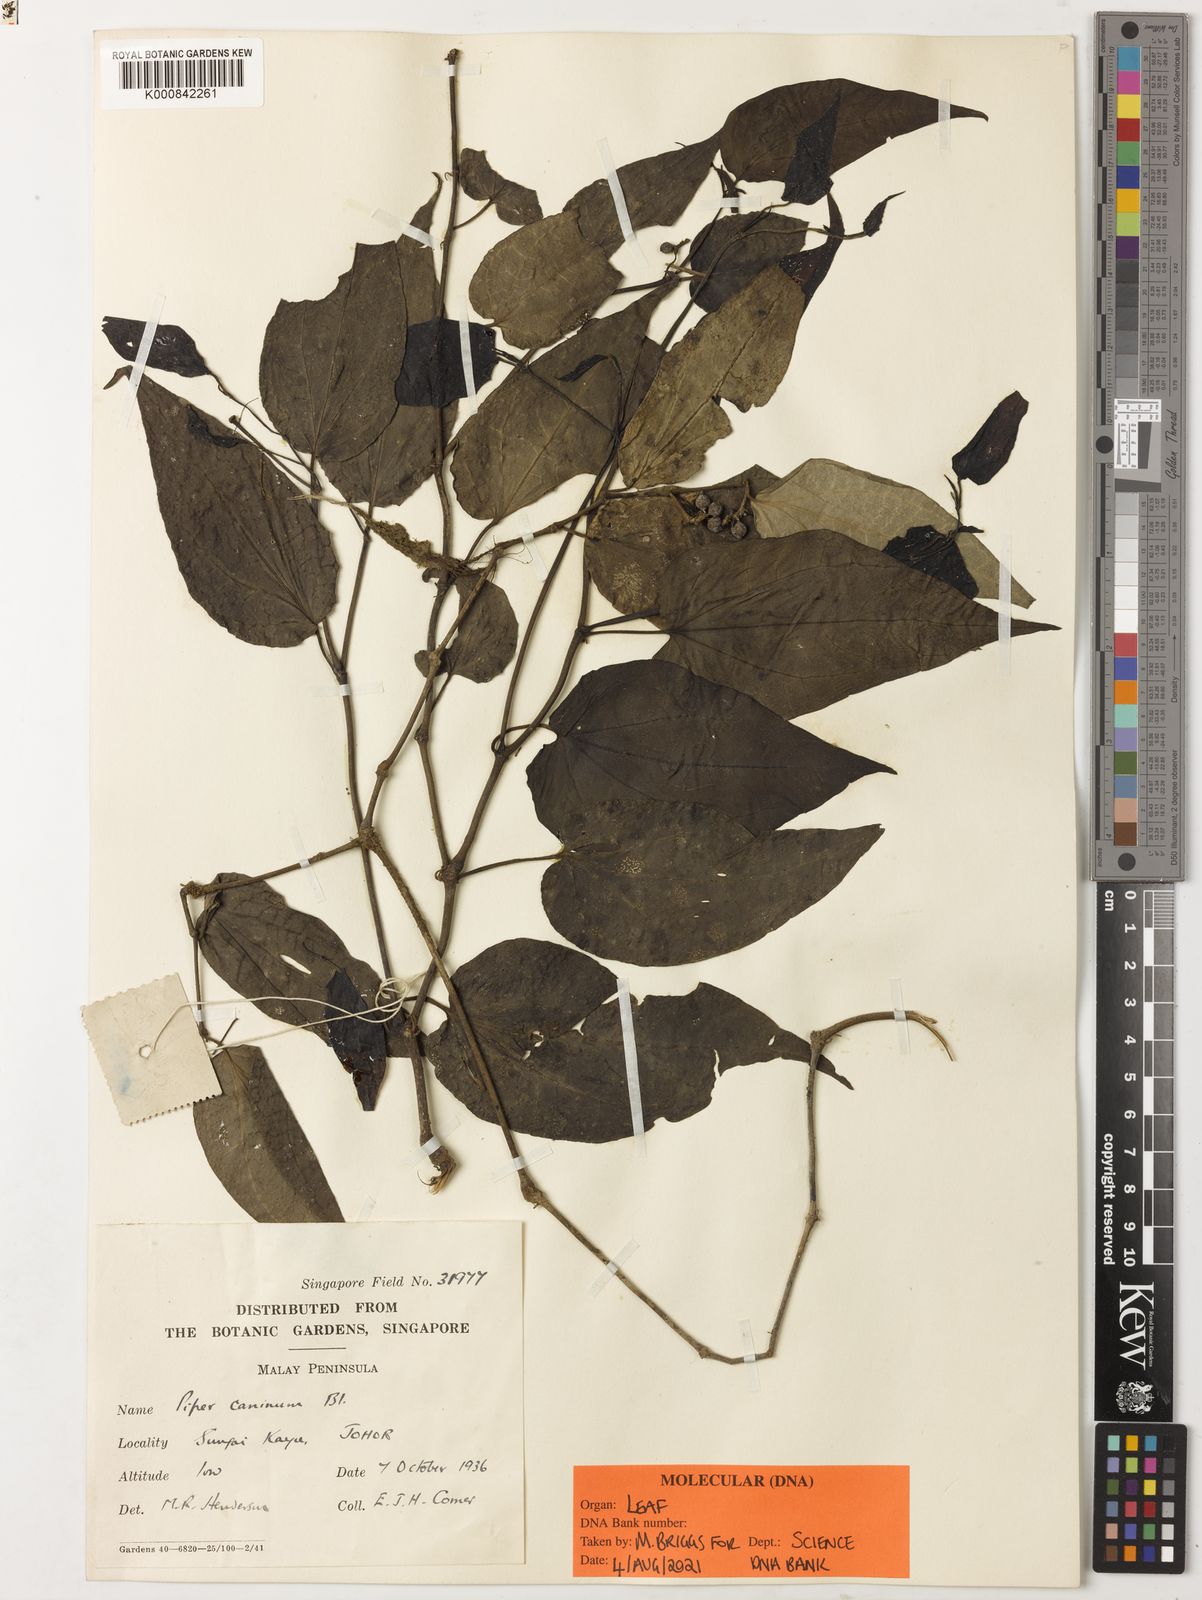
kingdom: Plantae
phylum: Tracheophyta
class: Magnoliopsida
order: Piperales
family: Piperaceae
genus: Piper
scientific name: Piper lanatum
